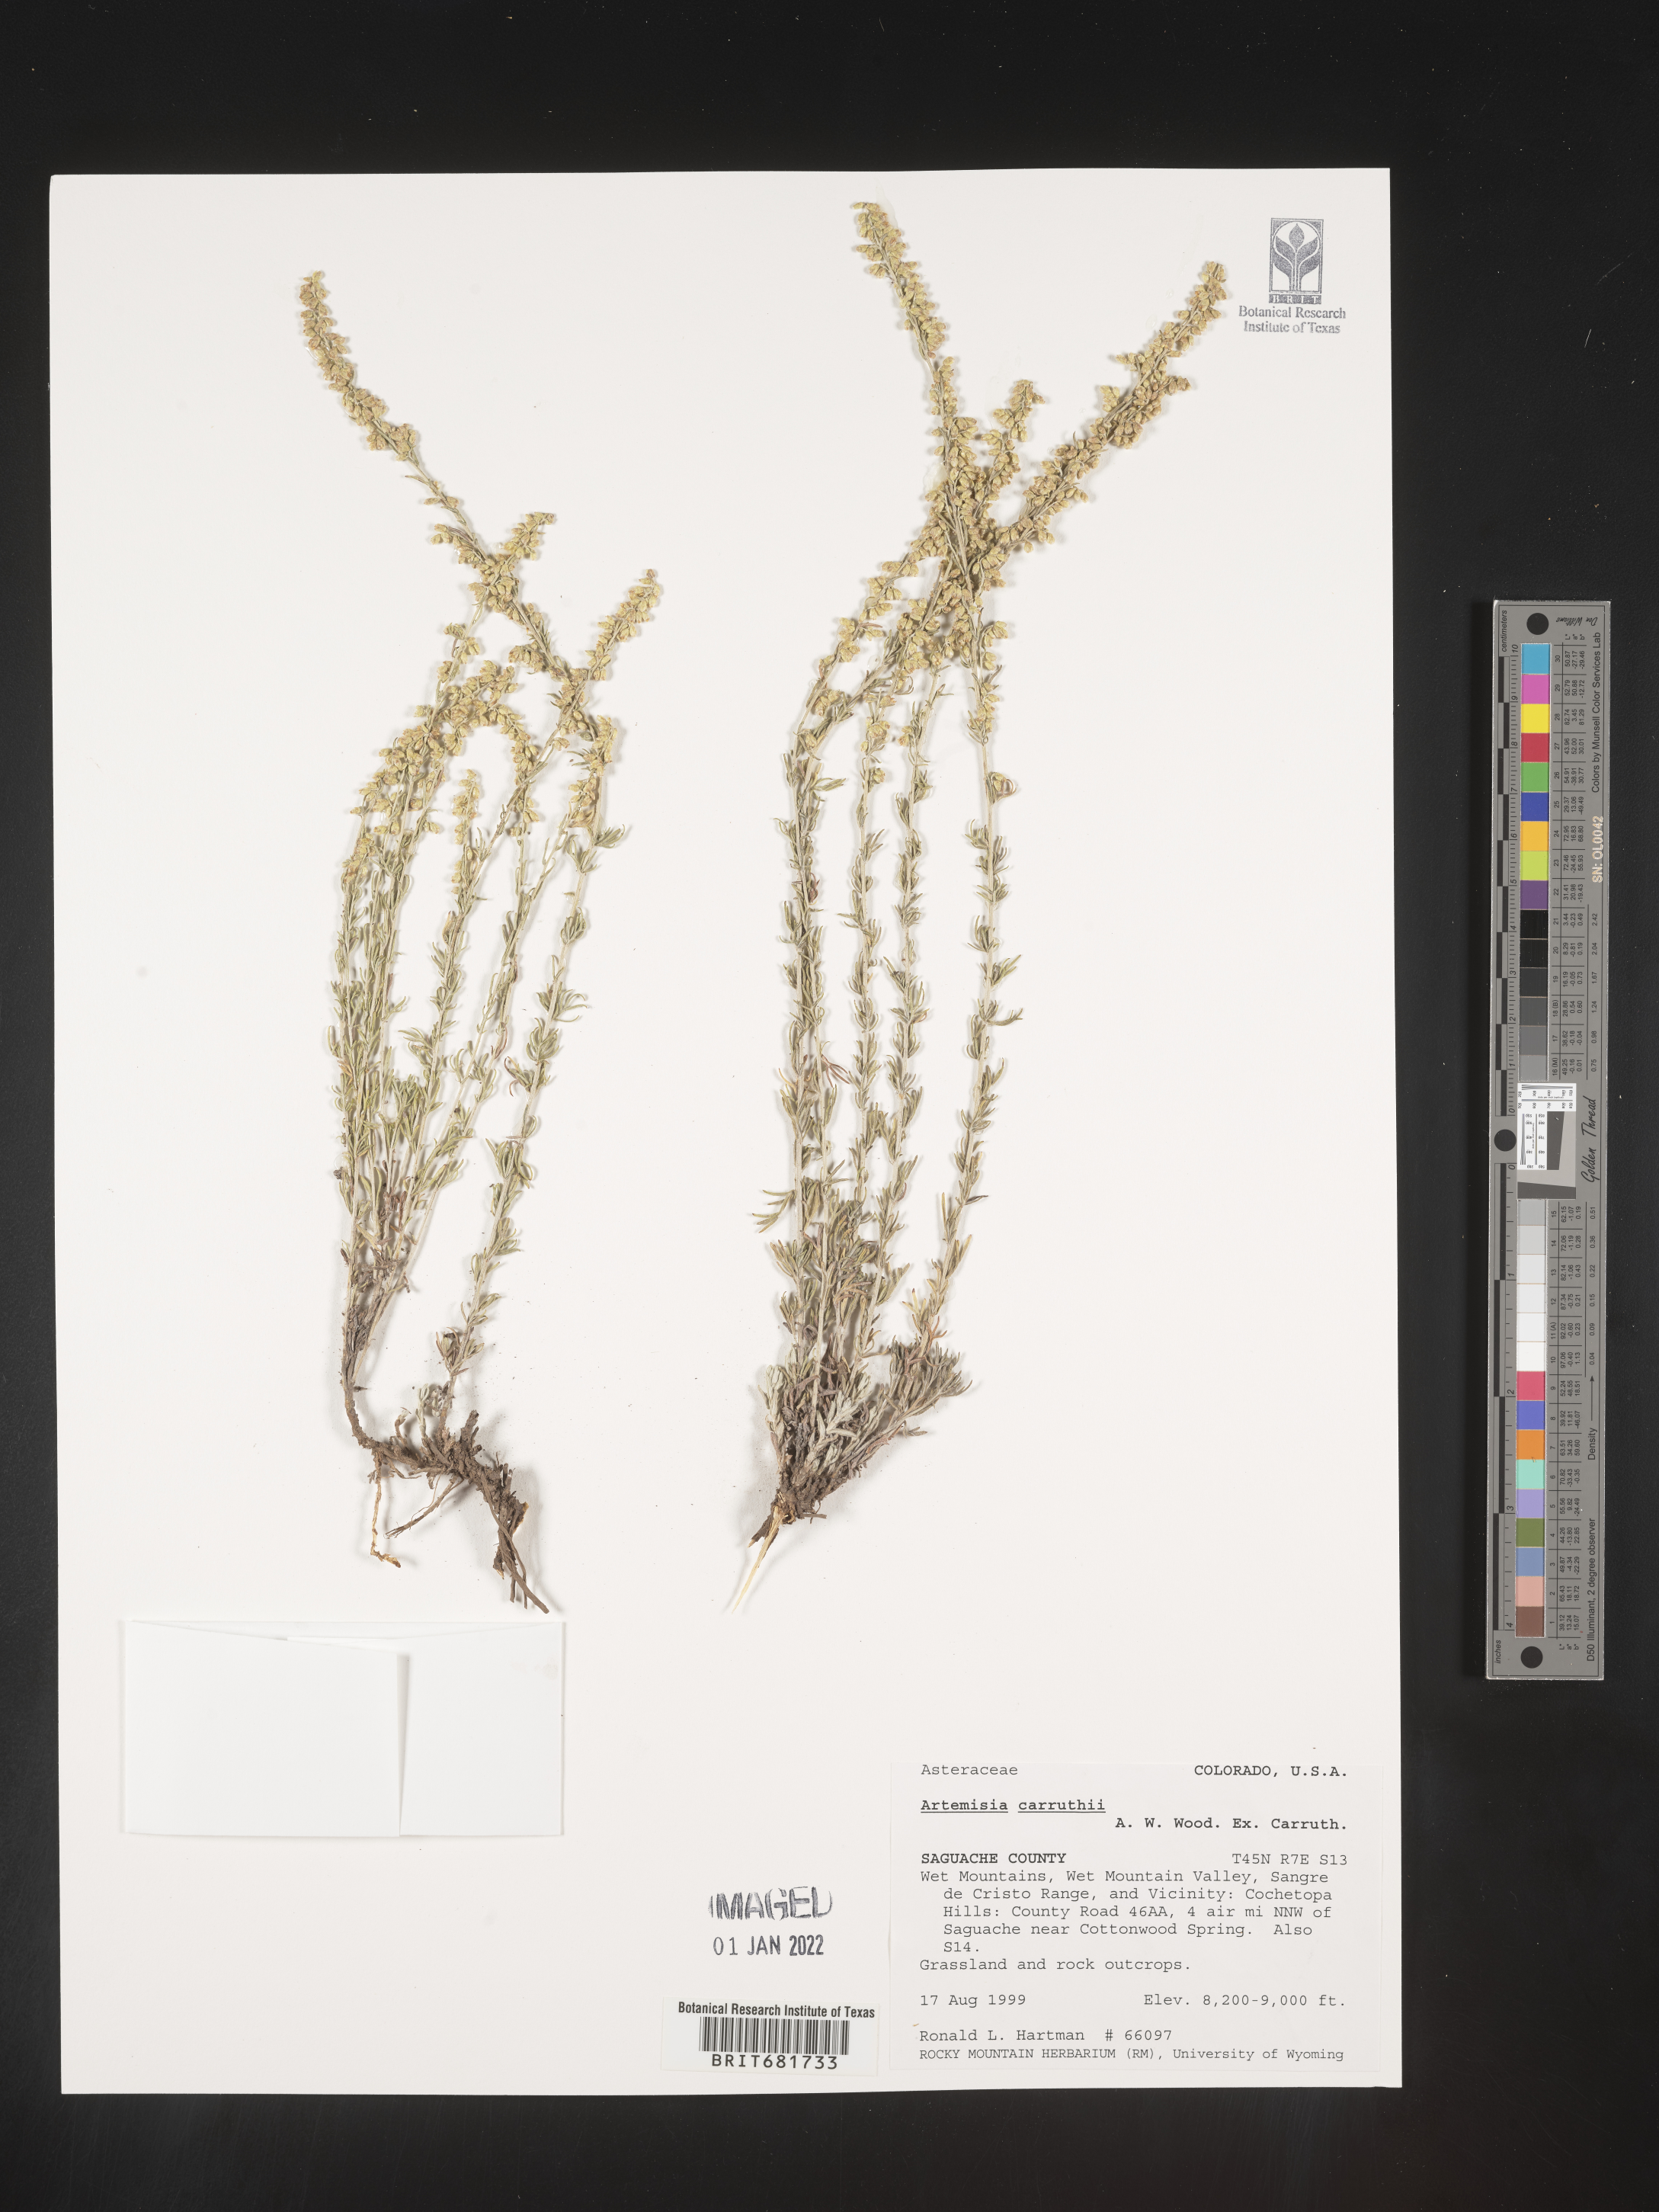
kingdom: Plantae
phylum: Tracheophyta
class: Magnoliopsida
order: Asterales
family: Asteraceae
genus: Artemisia
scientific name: Artemisia carruthii
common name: Carruth wormwood
